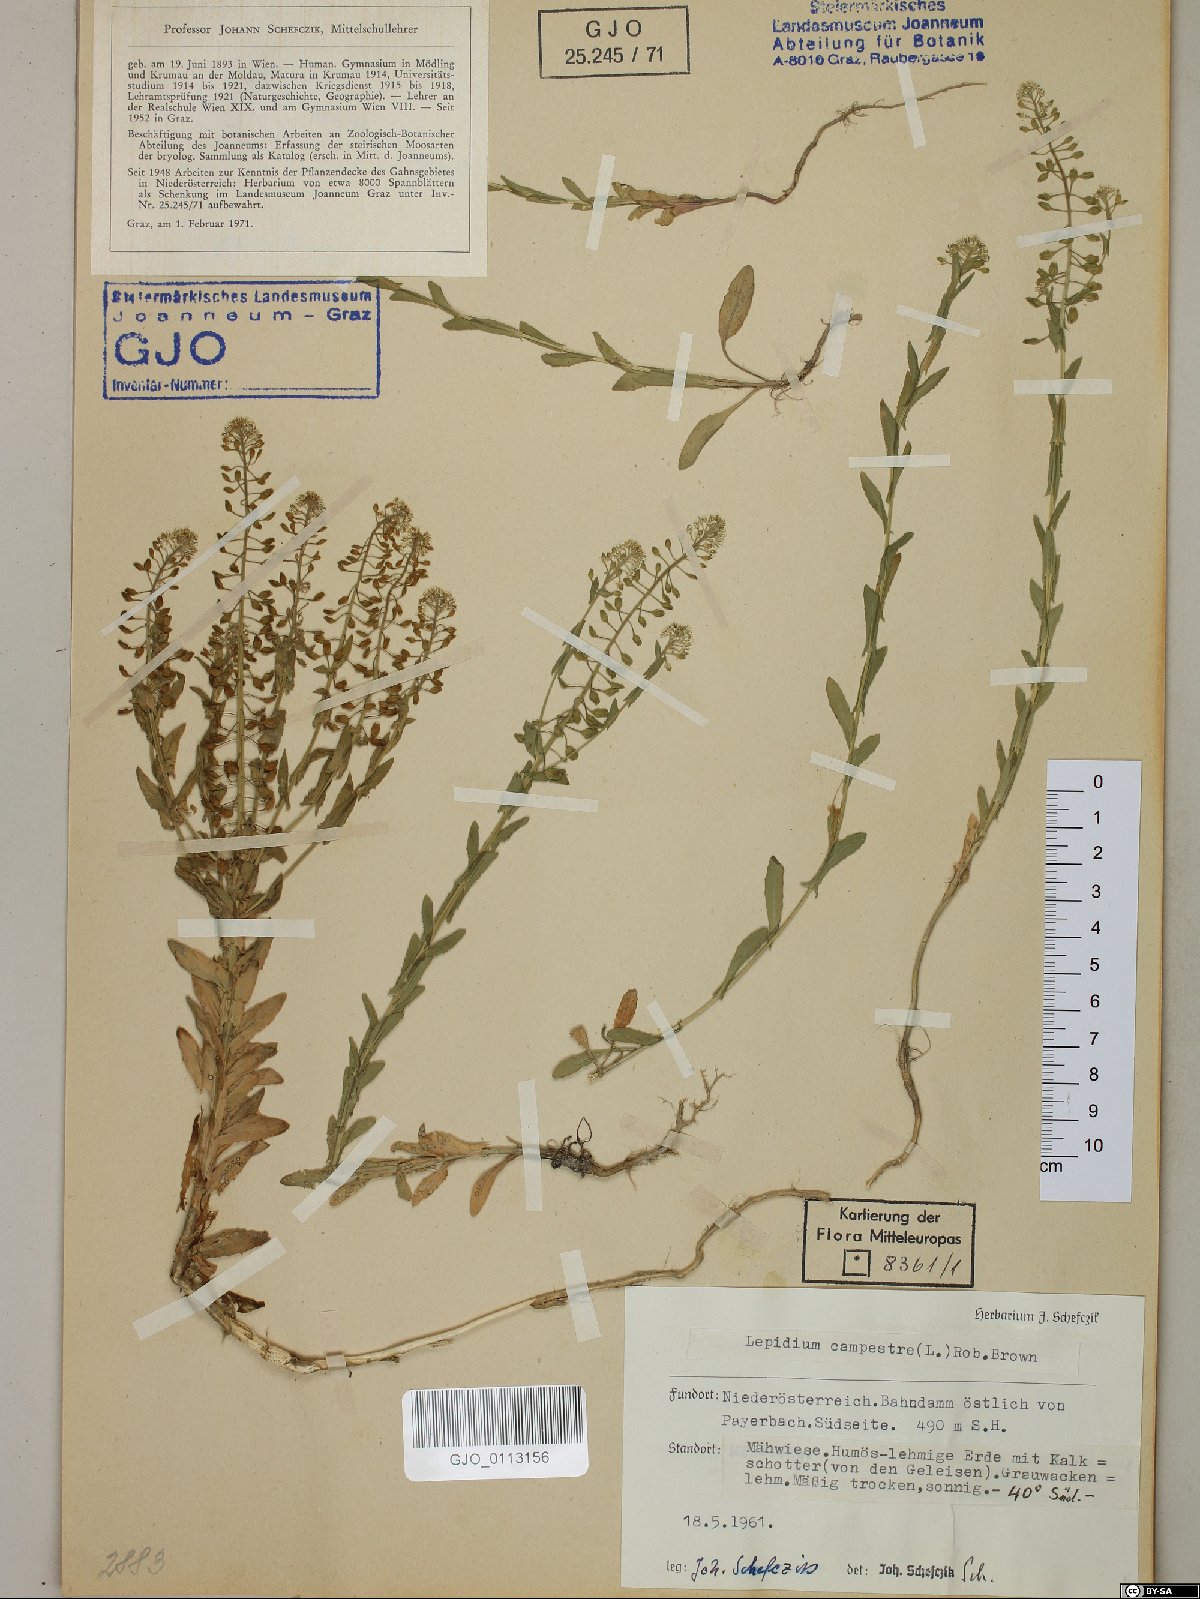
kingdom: Plantae
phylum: Tracheophyta
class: Magnoliopsida
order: Brassicales
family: Brassicaceae
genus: Lepidium
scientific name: Lepidium campestre
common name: Field pepperwort
